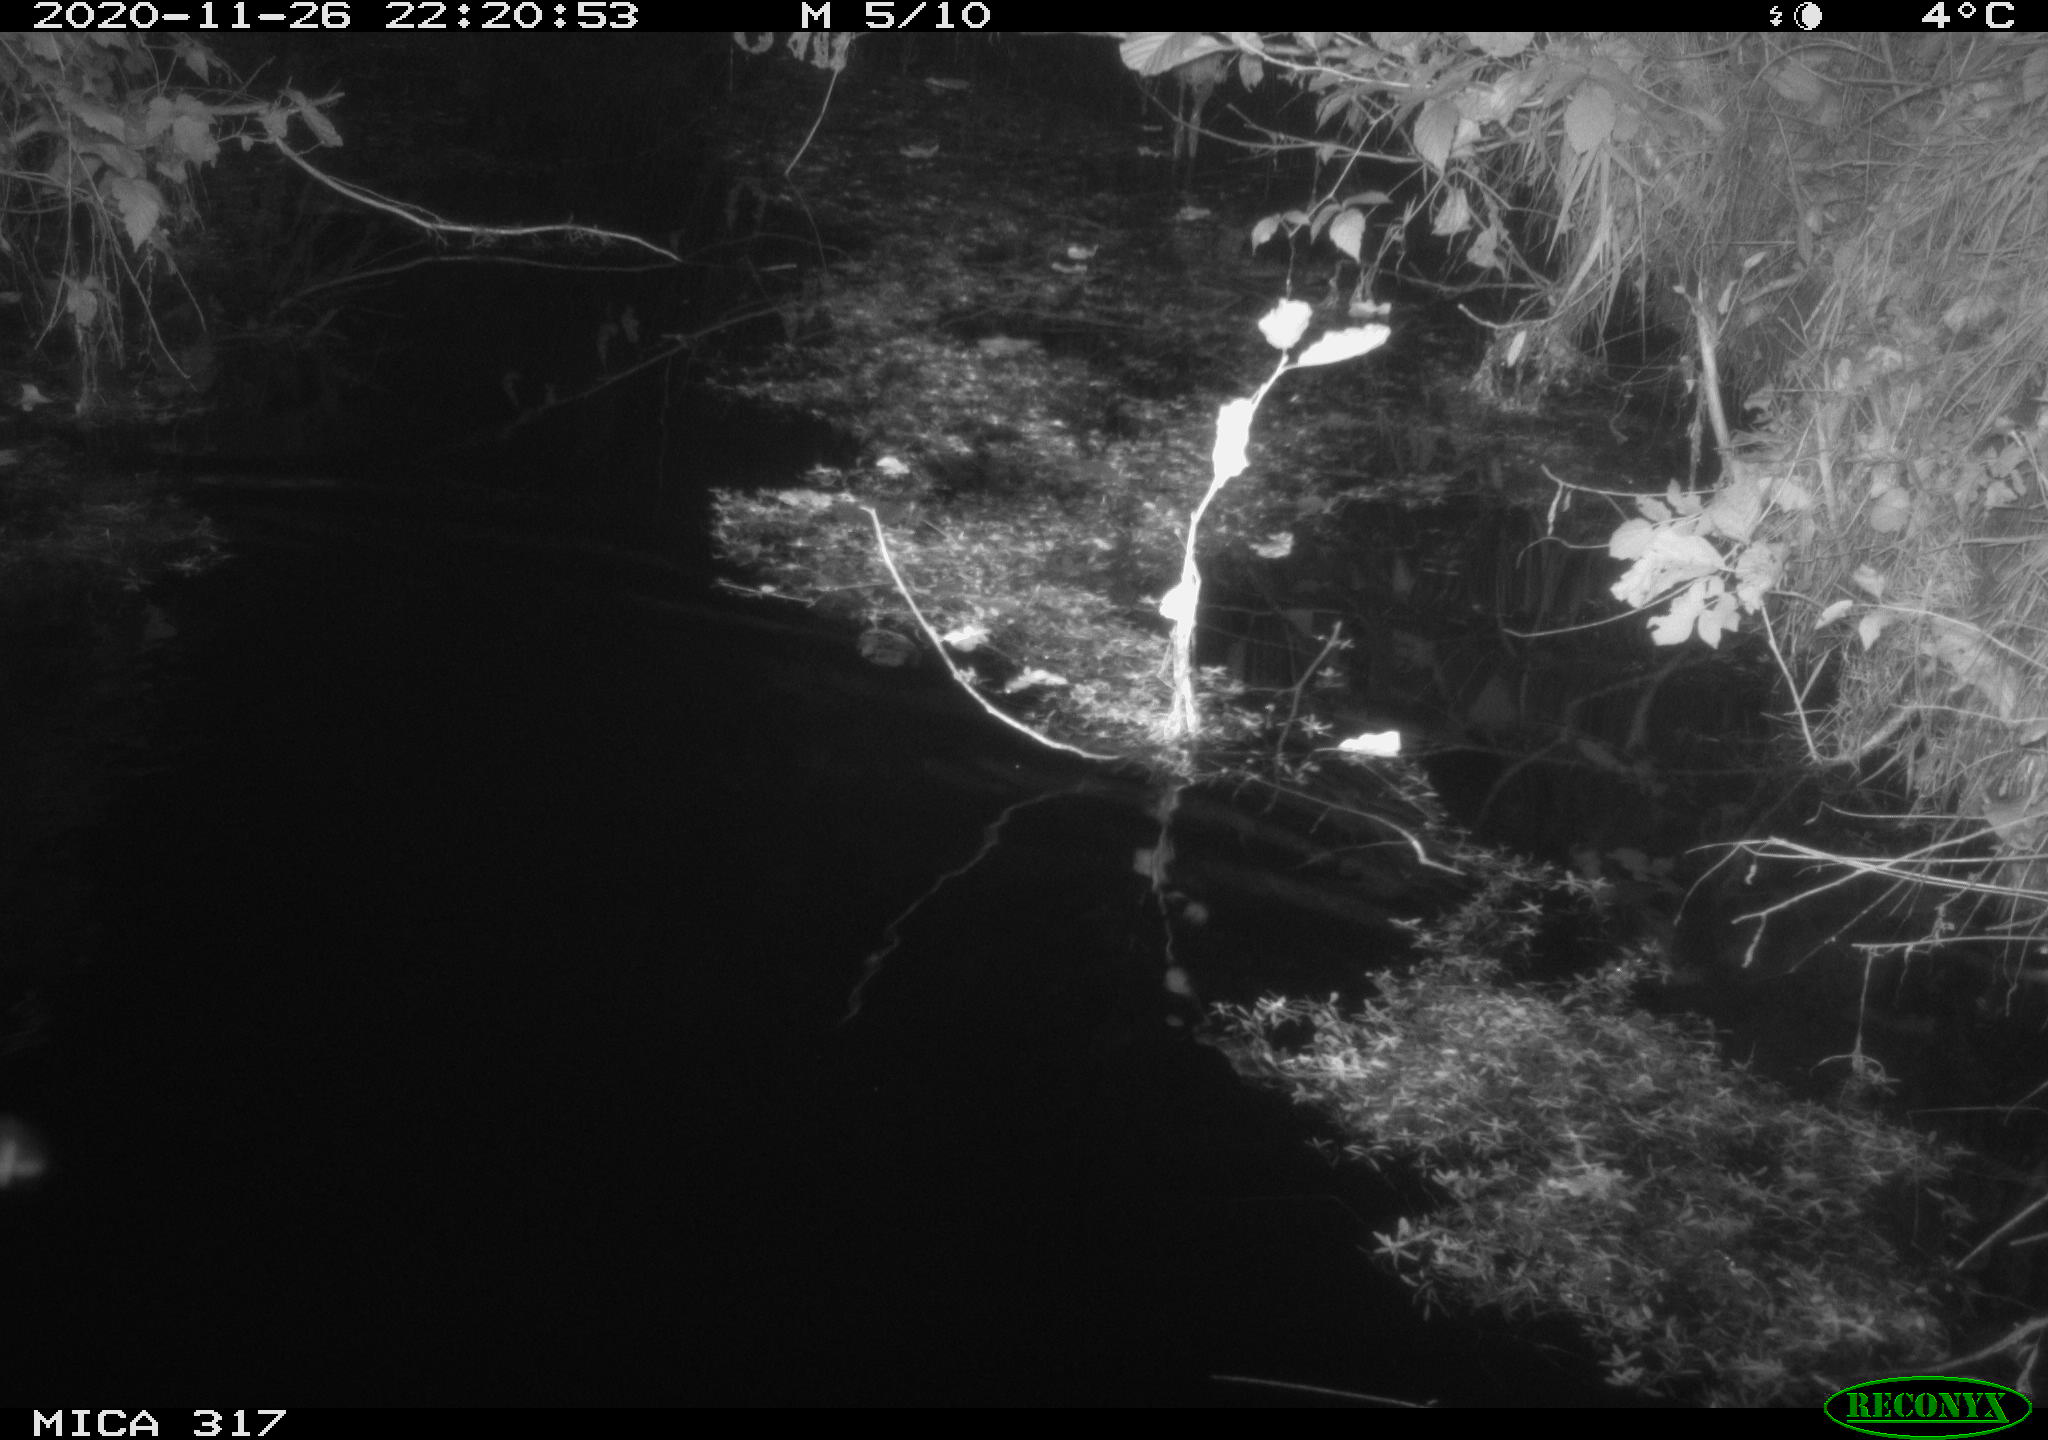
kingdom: Animalia
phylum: Chordata
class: Mammalia
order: Rodentia
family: Muridae
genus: Rattus
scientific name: Rattus norvegicus
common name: Brown rat
